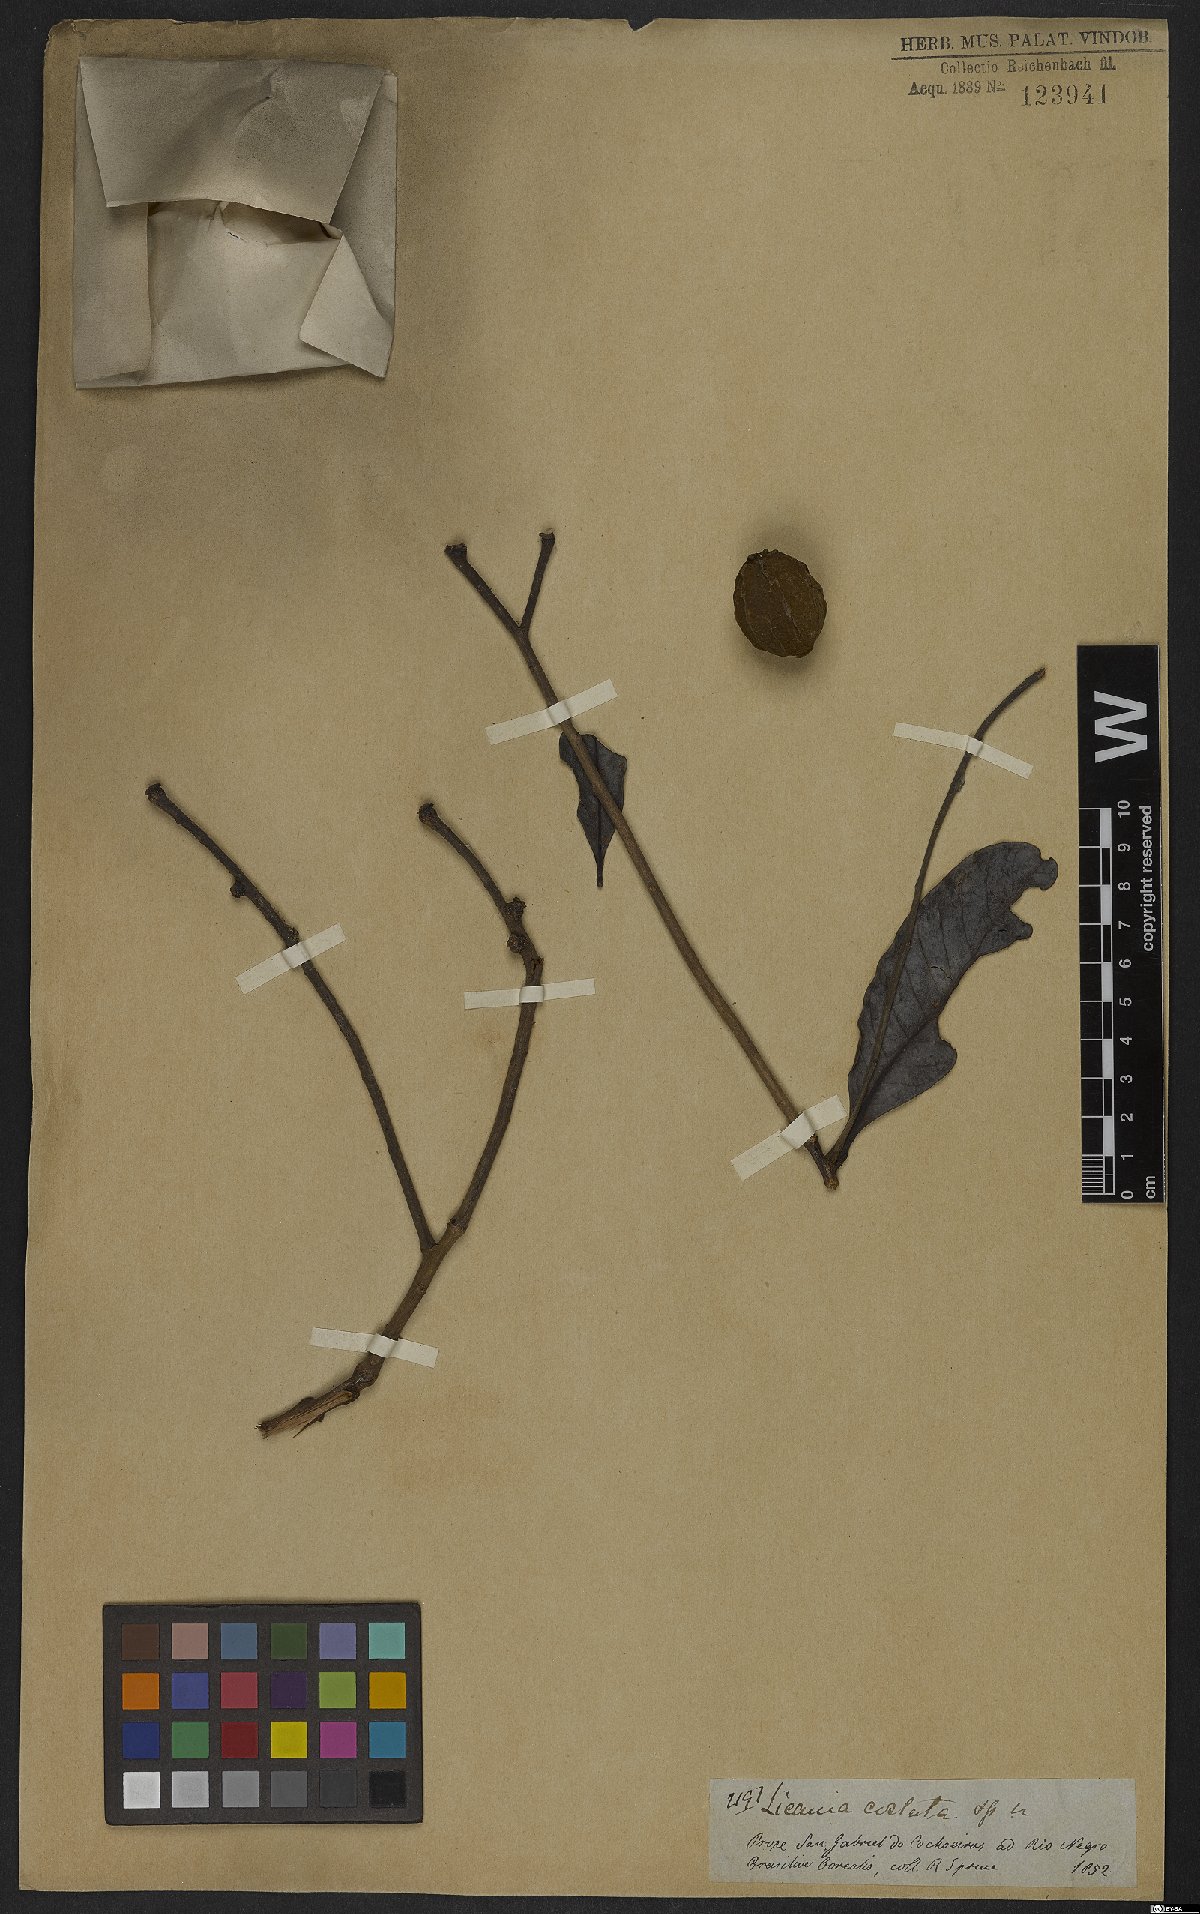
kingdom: Plantae
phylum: Tracheophyta
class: Magnoliopsida
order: Malpighiales
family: Chrysobalanaceae
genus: Hymenopus
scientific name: Hymenopus heteromorphus
